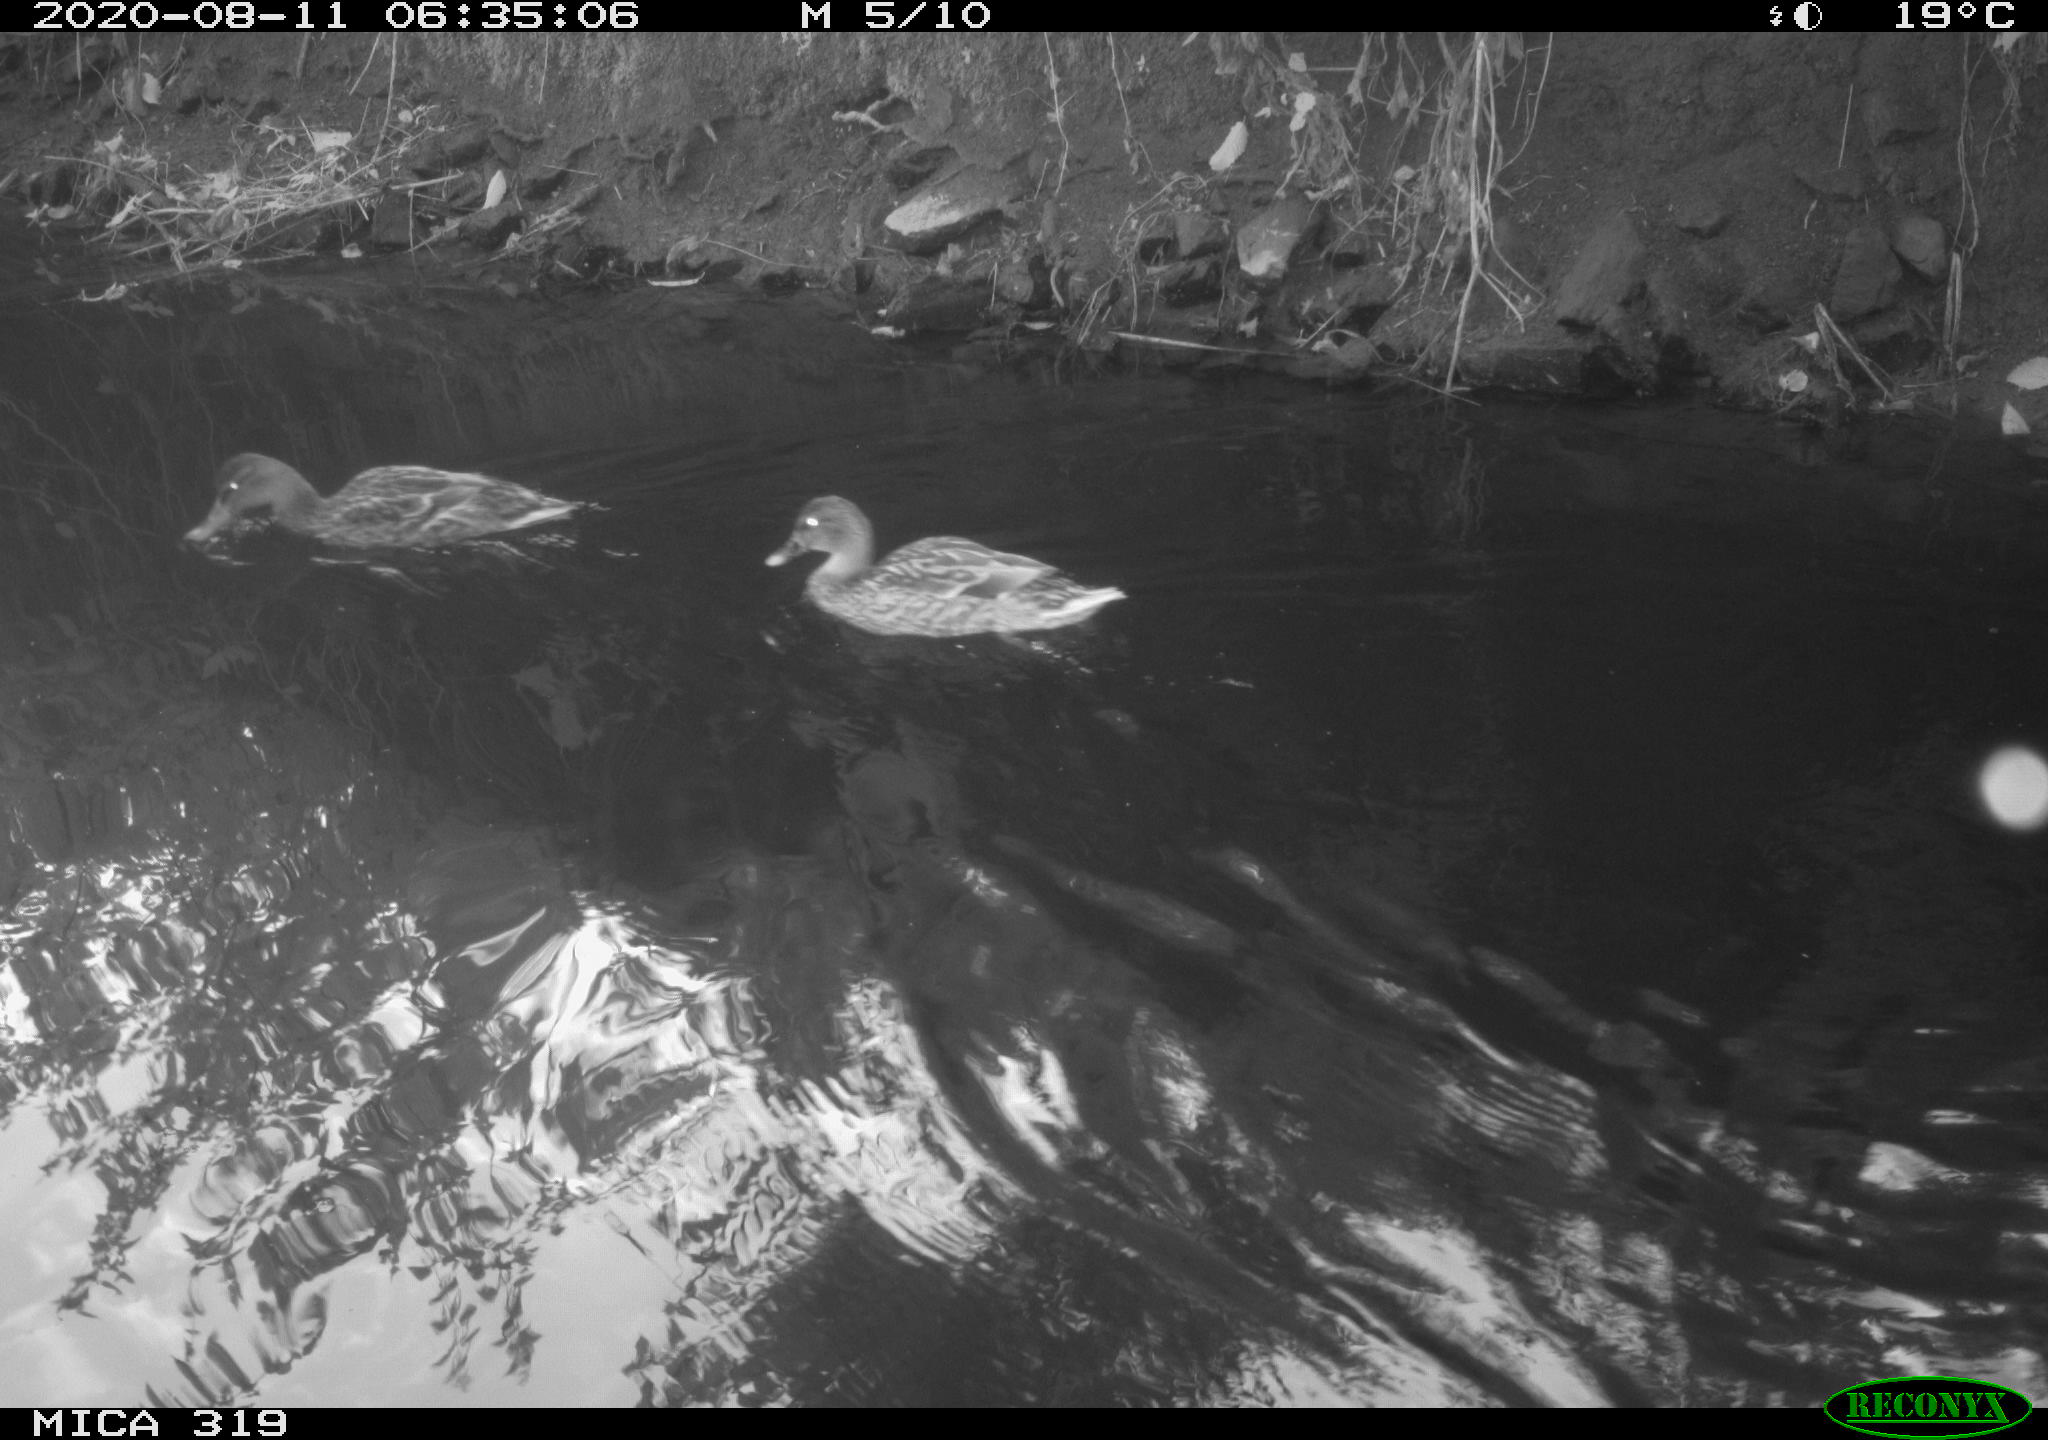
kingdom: Animalia
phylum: Chordata
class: Aves
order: Anseriformes
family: Anatidae
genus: Anas
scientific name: Anas platyrhynchos
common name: Mallard
